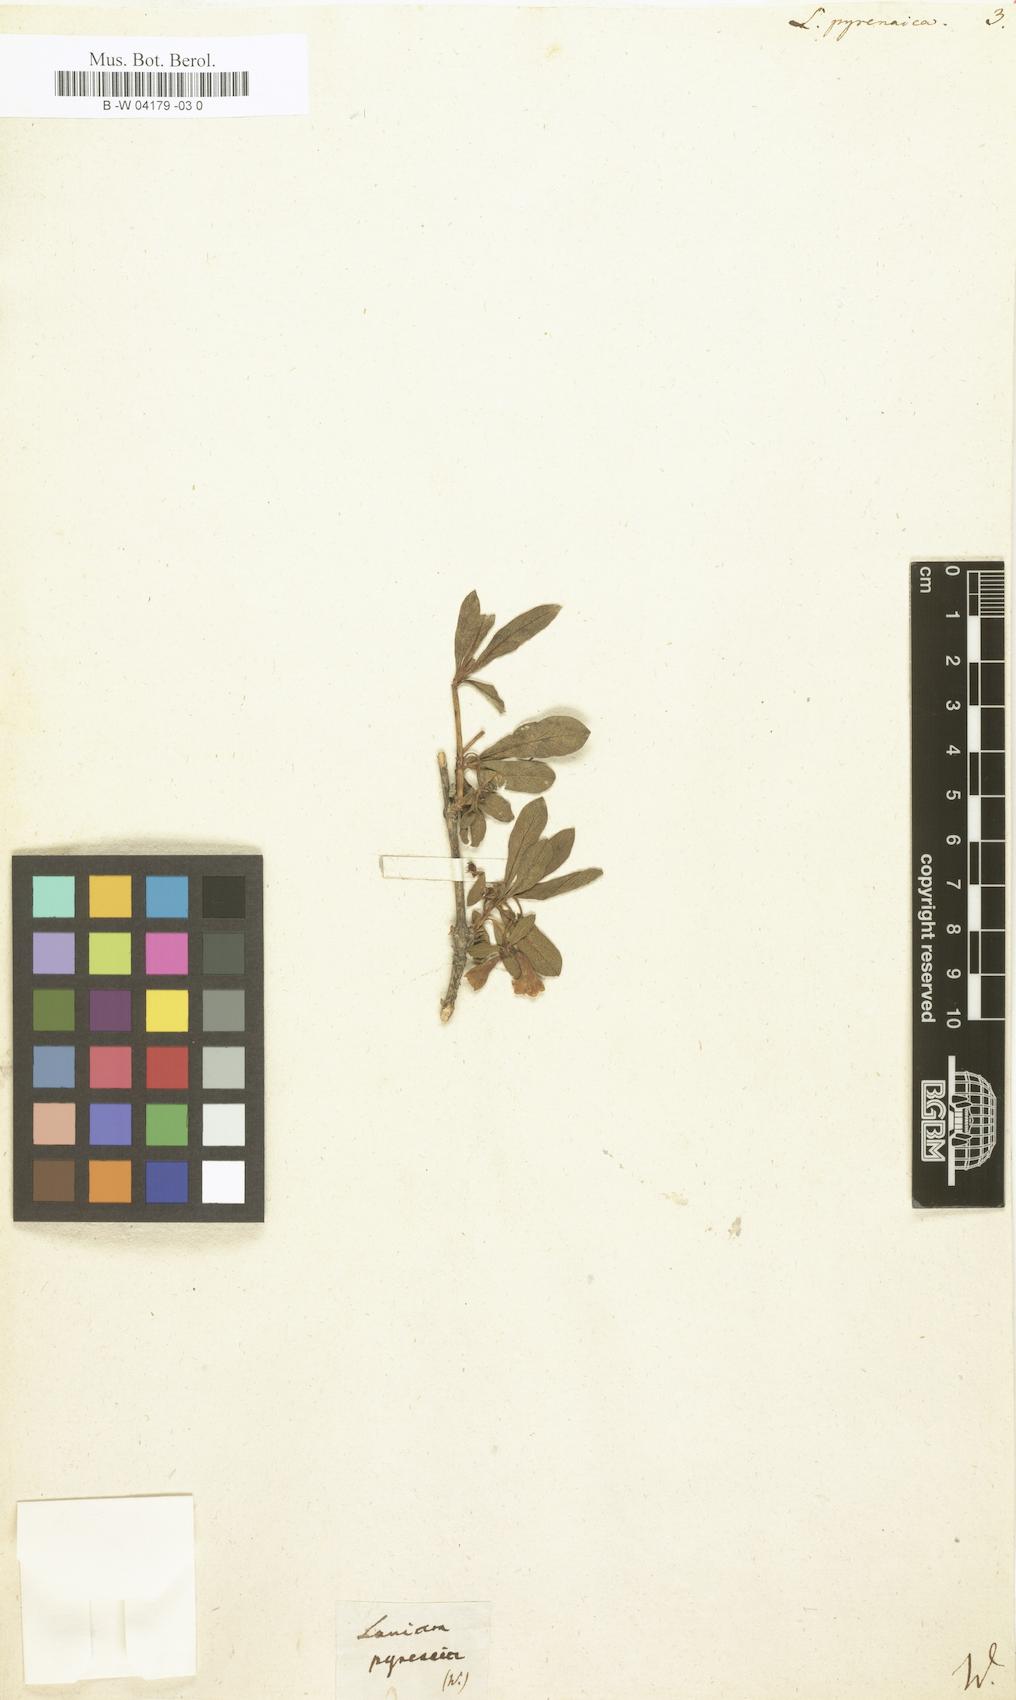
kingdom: Plantae
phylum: Tracheophyta
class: Magnoliopsida
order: Dipsacales
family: Caprifoliaceae
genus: Lonicera
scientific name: Lonicera pyrenaica
